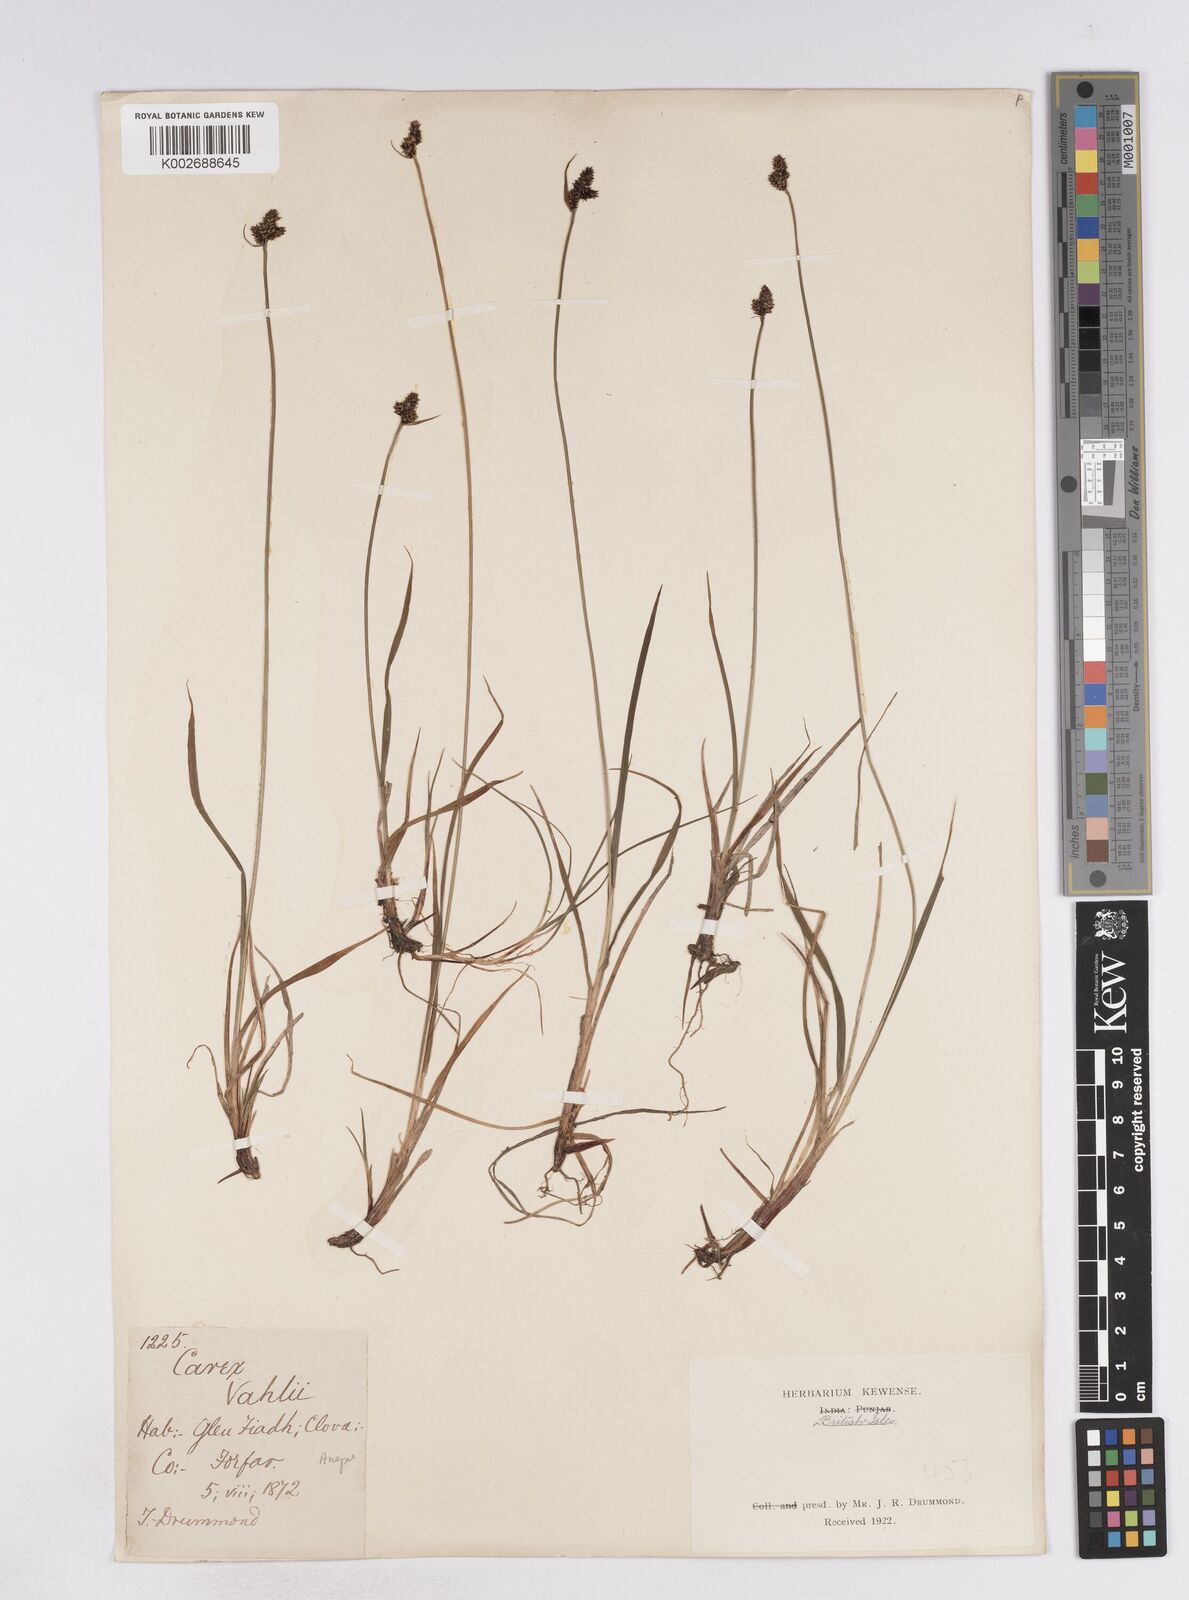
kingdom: Plantae
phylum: Tracheophyta
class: Liliopsida
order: Poales
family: Cyperaceae
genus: Carex
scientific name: Carex norvegica
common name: Close-headed alpine-sedge
